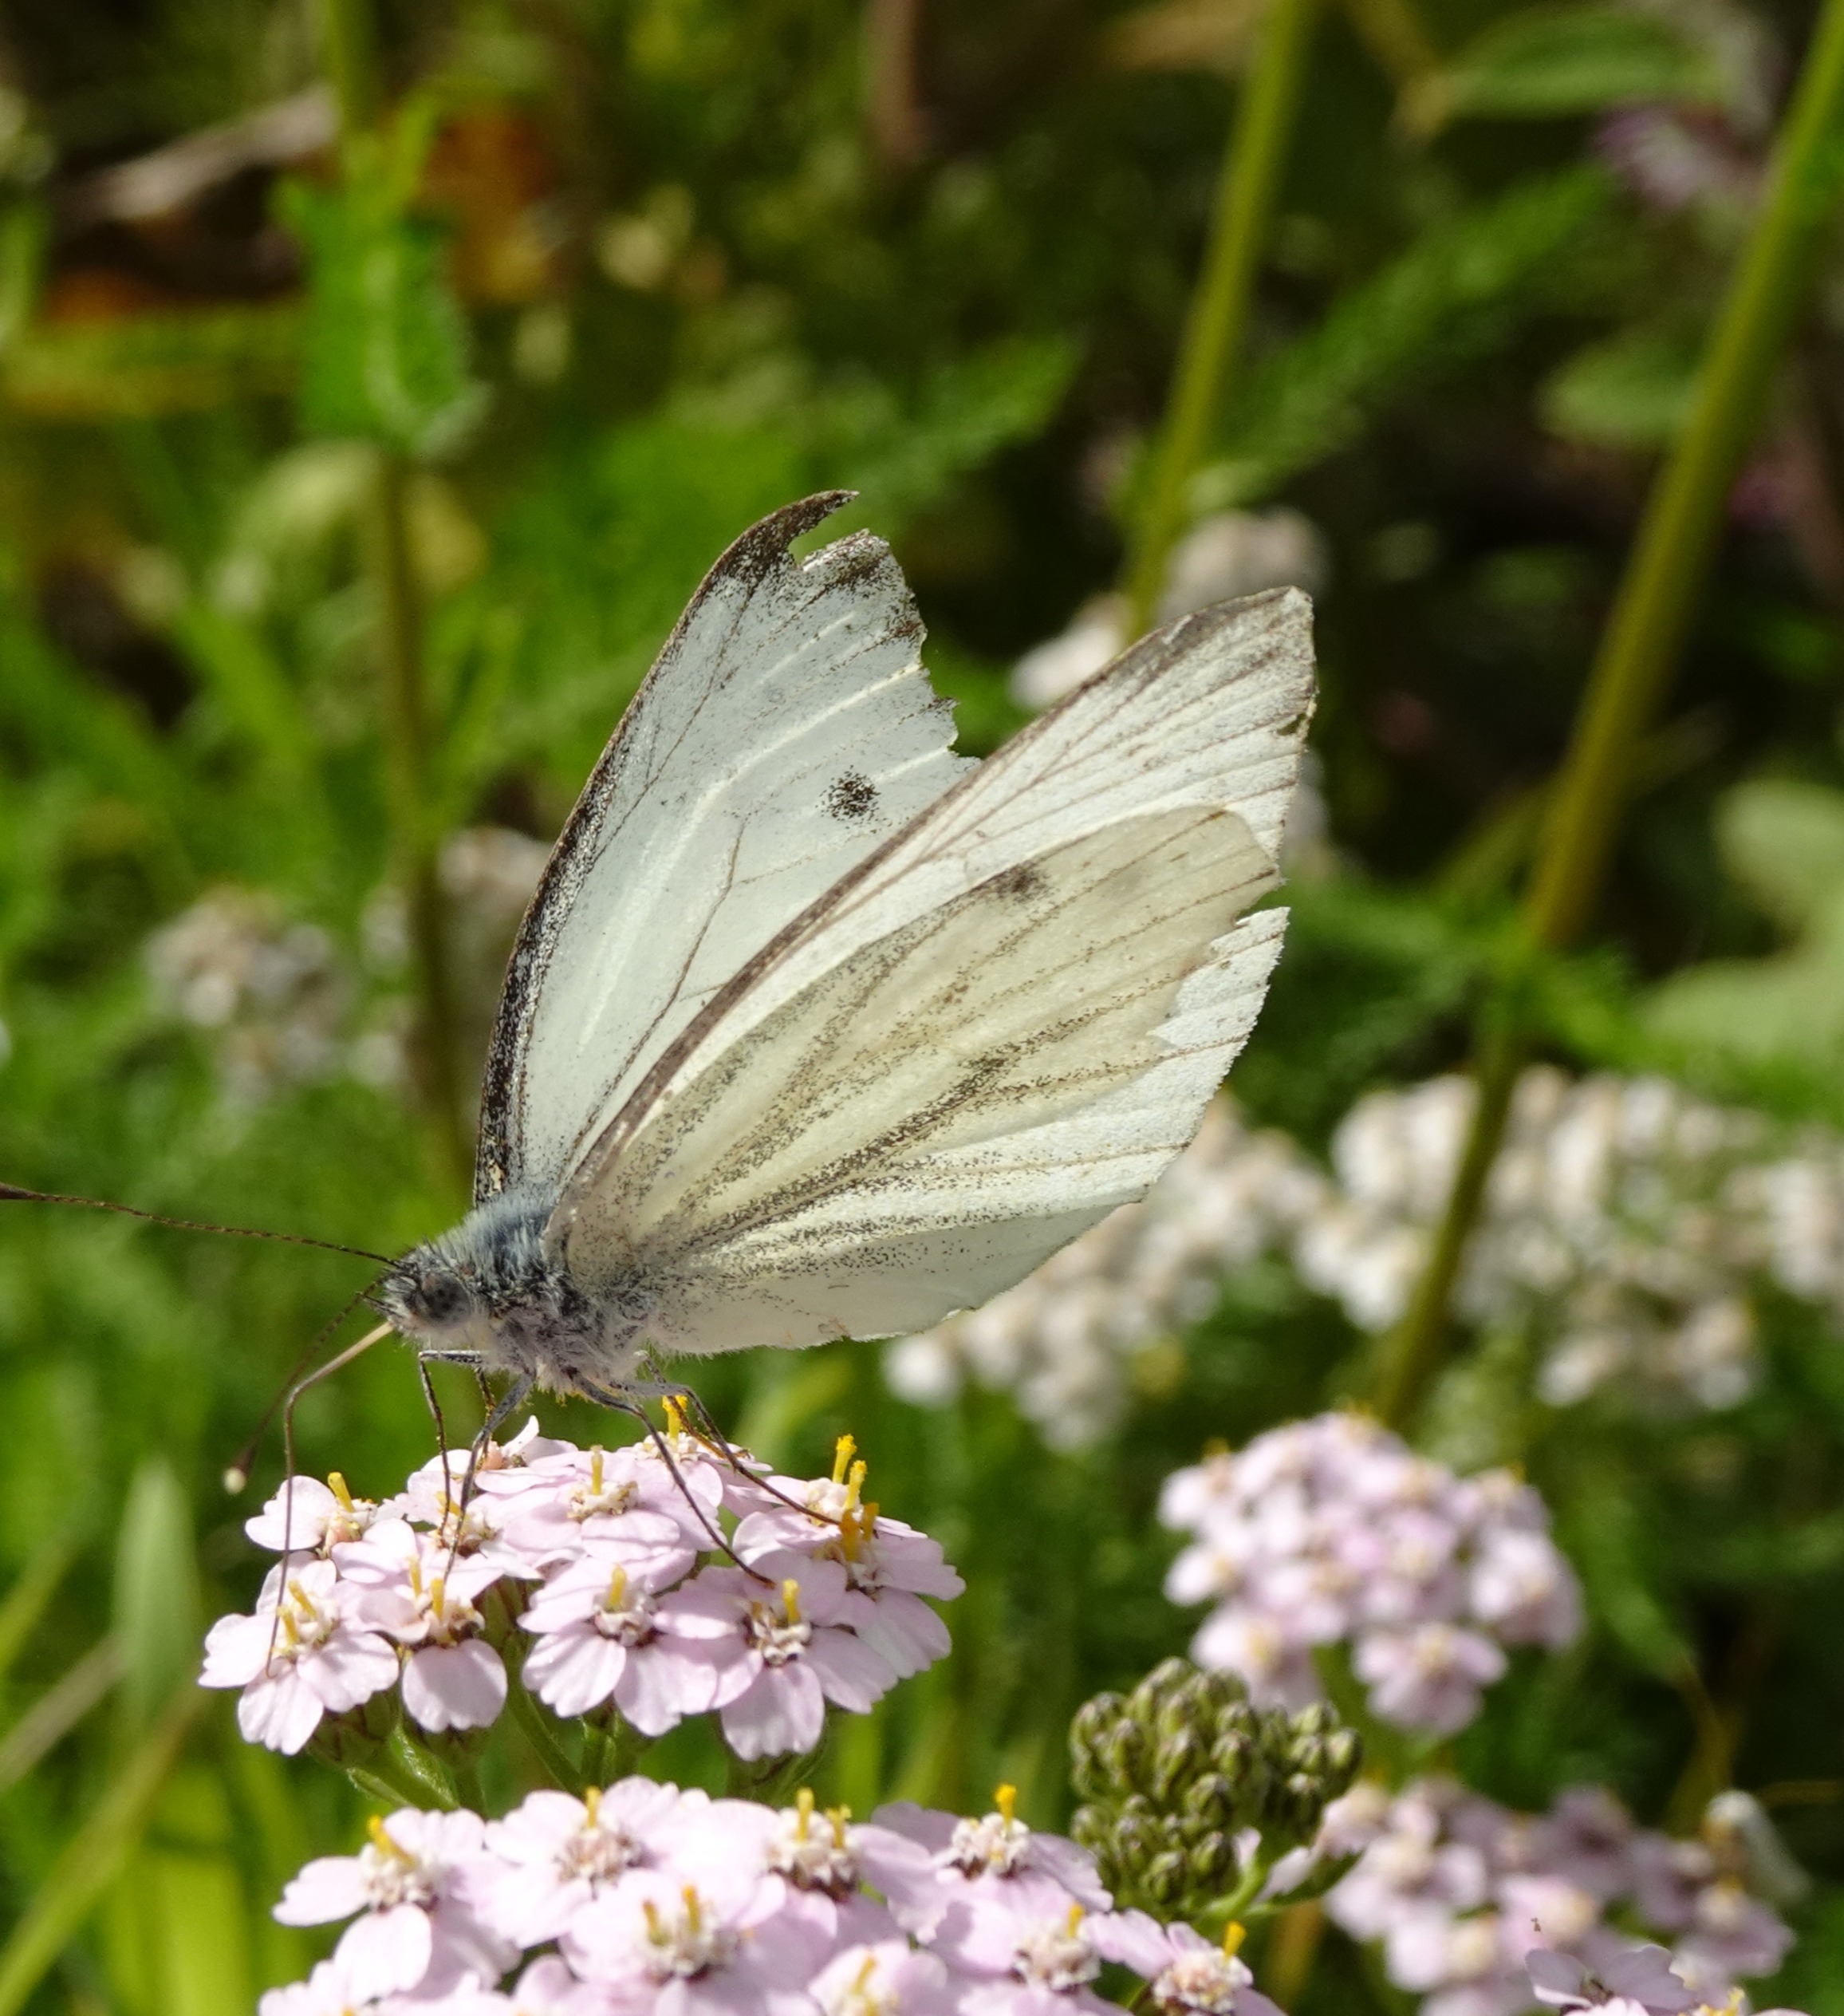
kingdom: Animalia
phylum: Arthropoda
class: Insecta
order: Lepidoptera
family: Pieridae
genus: Pieris
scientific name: Pieris napi
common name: Grønåret kålsommerfugl
